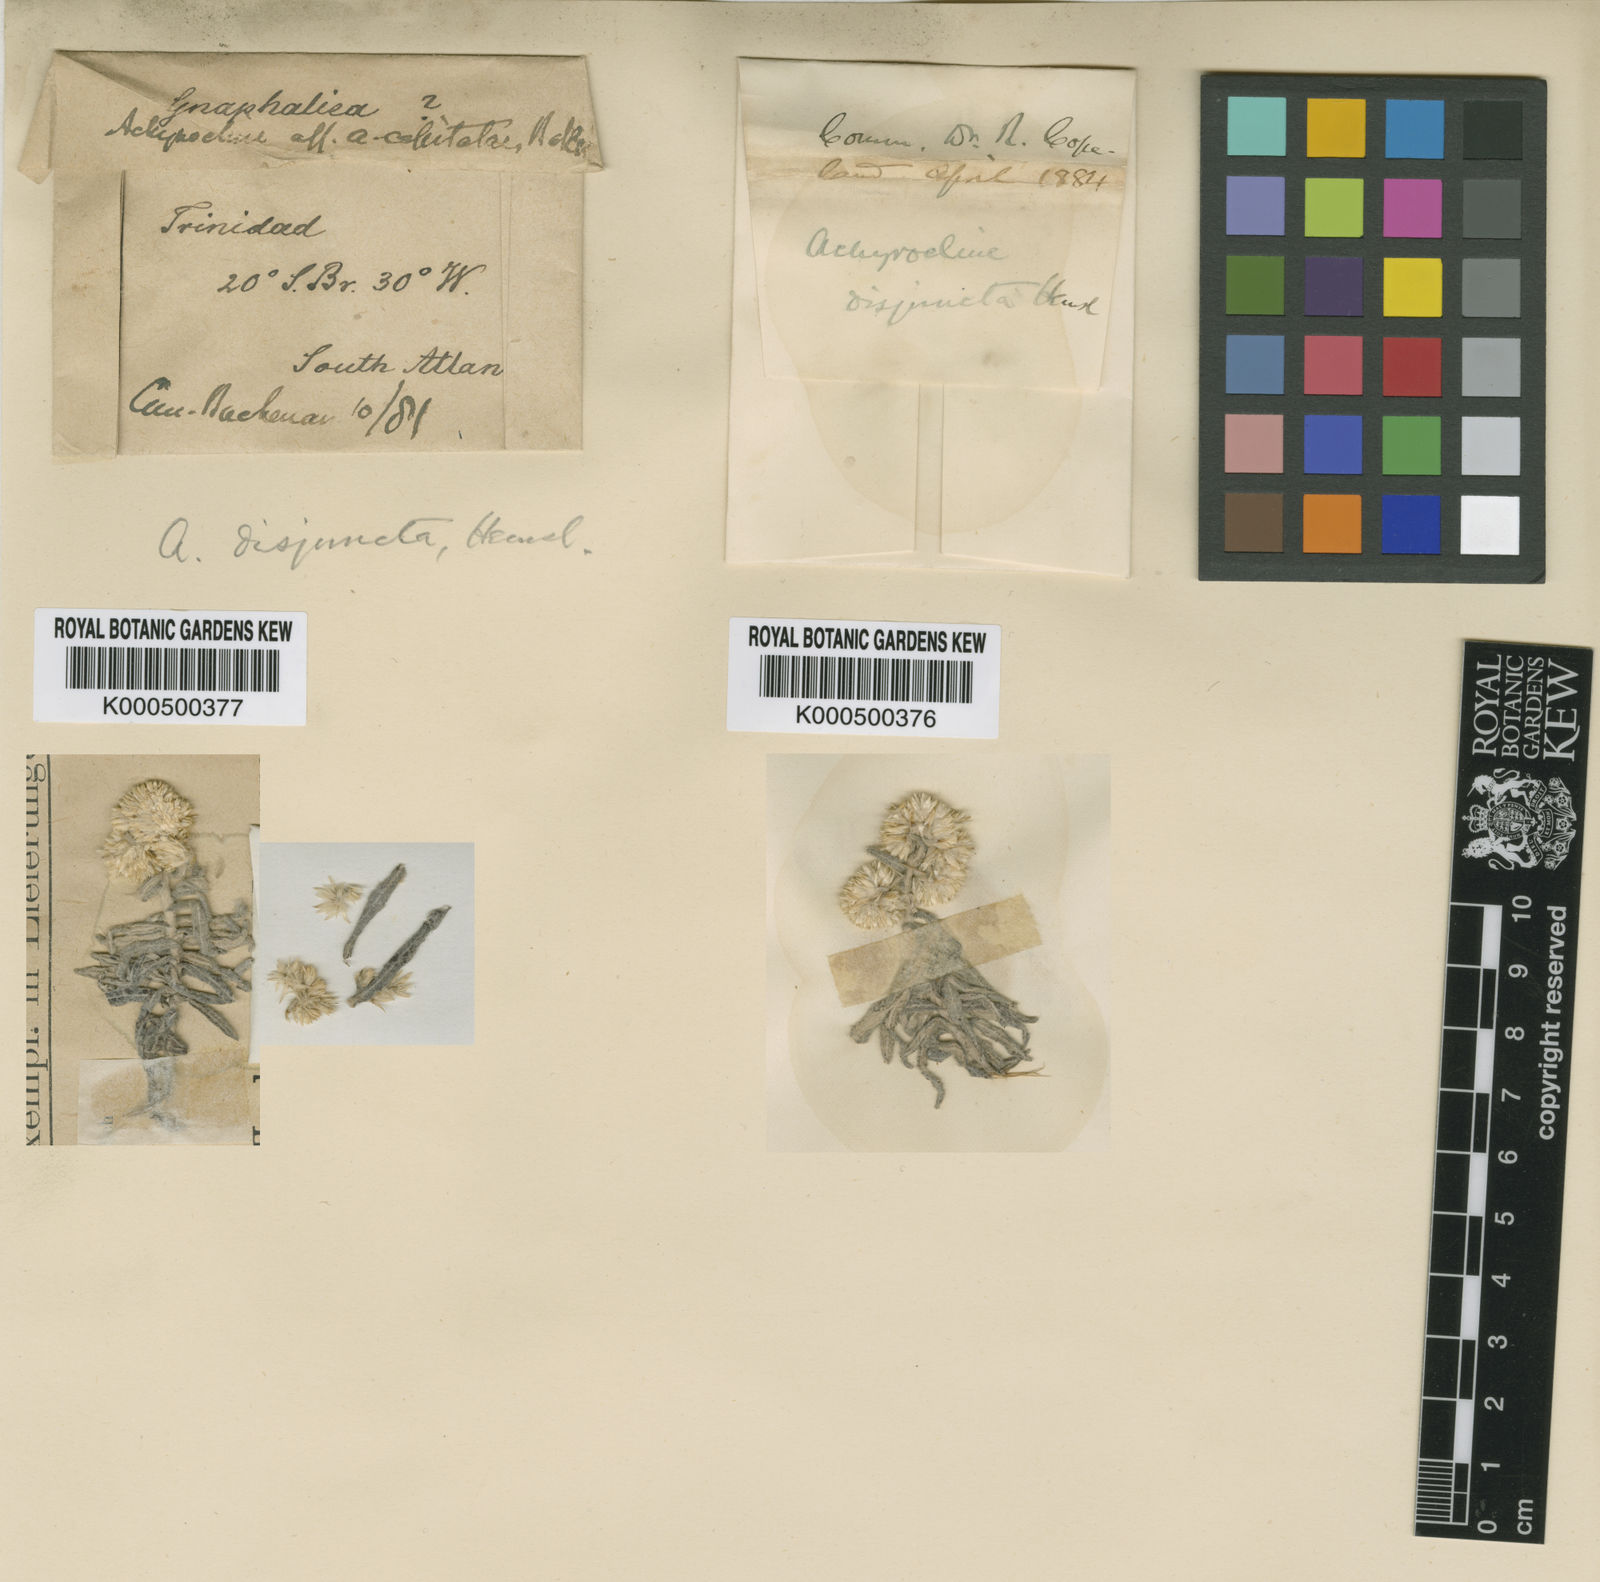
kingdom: Plantae
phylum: Tracheophyta
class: Magnoliopsida
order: Asterales
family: Asteraceae
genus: Achyrocline
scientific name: Achyrocline disjuncta
